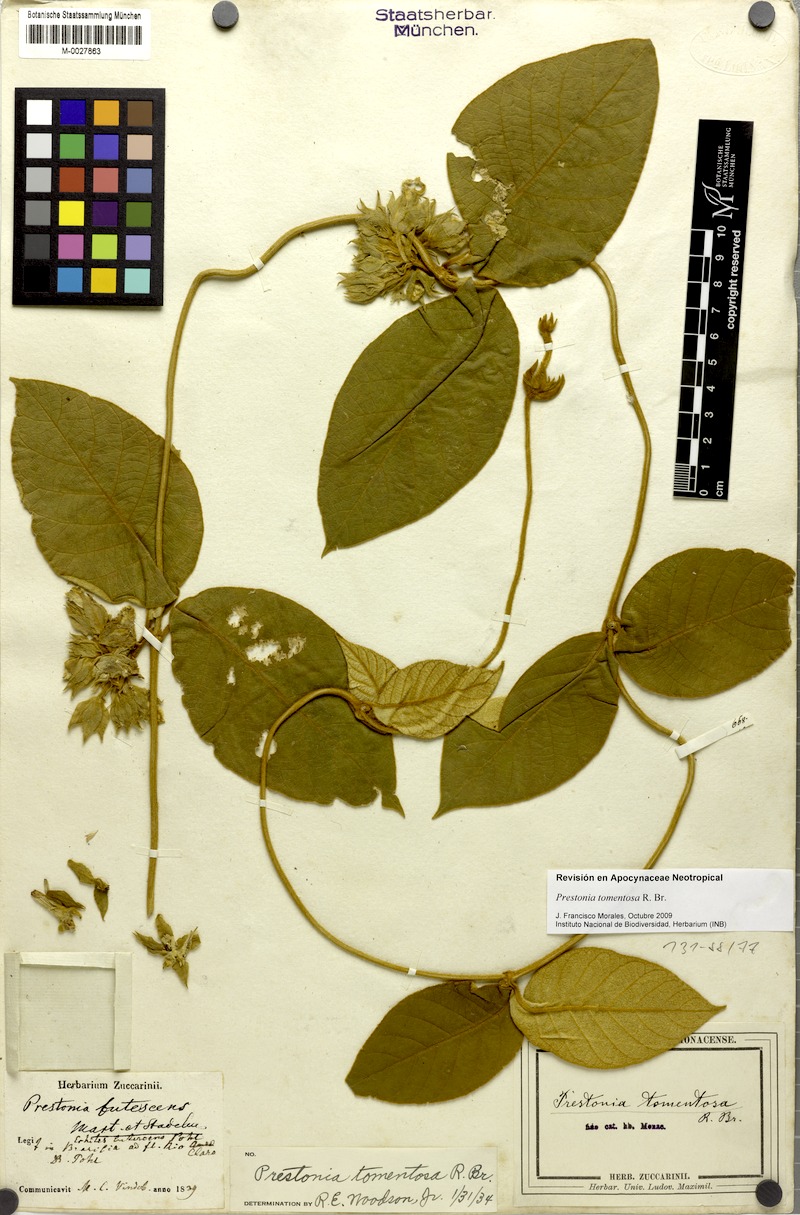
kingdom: Plantae
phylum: Tracheophyta
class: Magnoliopsida
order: Gentianales
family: Apocynaceae
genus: Prestonia
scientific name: Prestonia tomentosa
